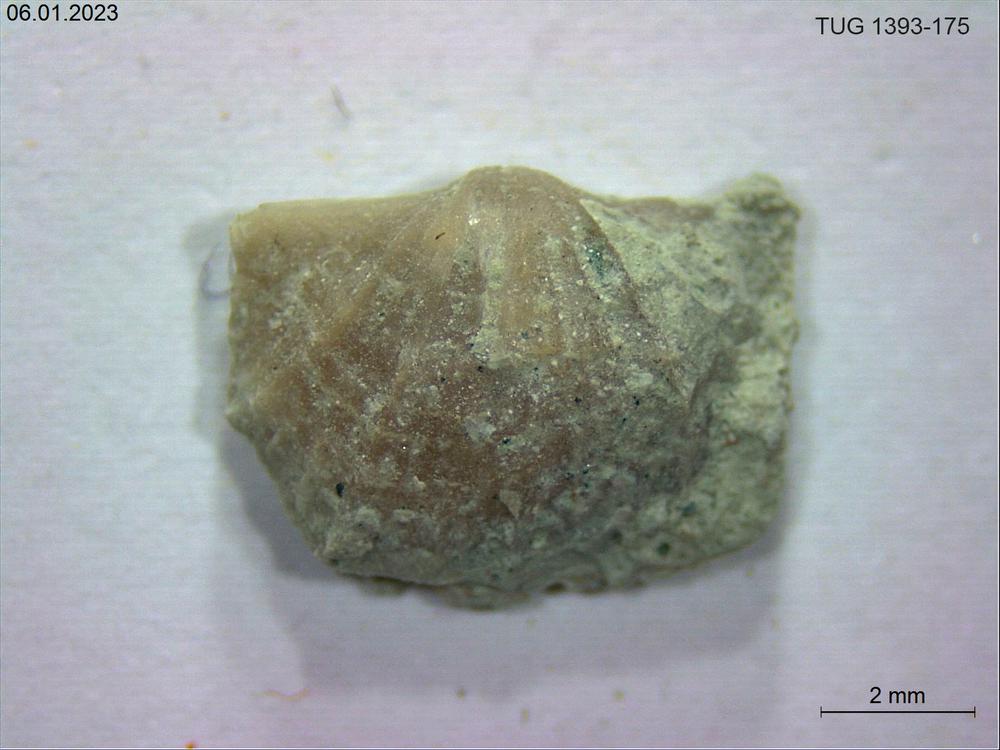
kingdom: Animalia
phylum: Brachiopoda
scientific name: Brachiopoda
